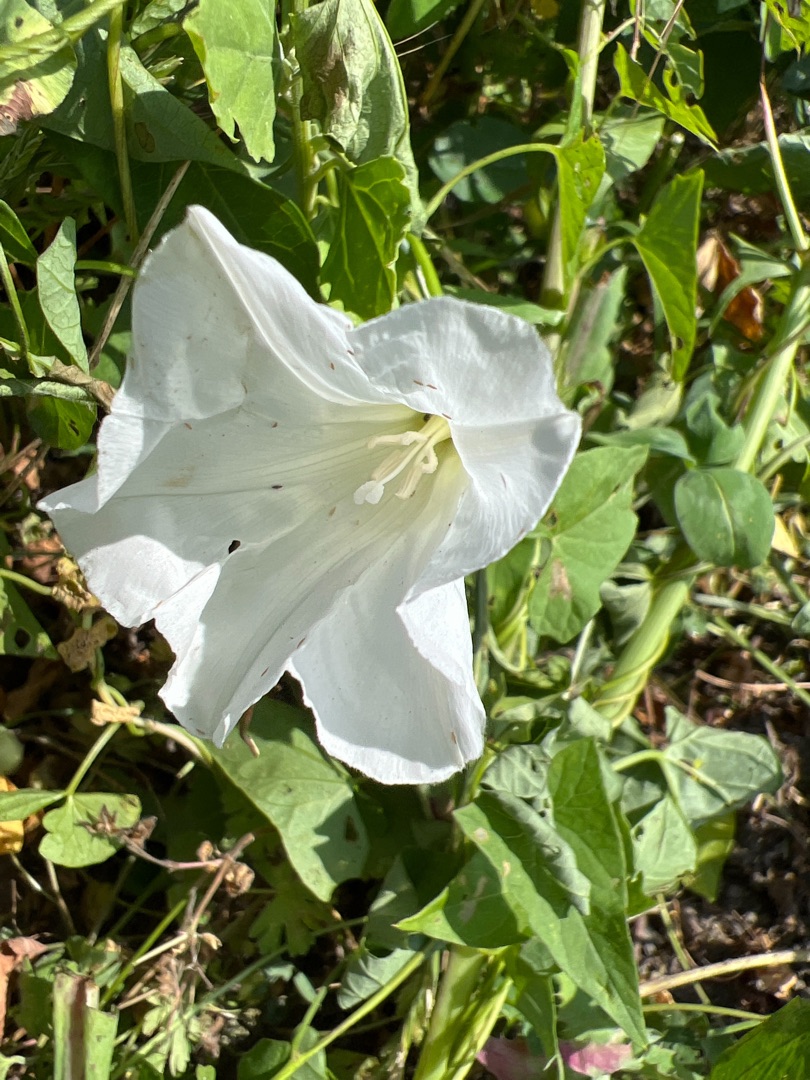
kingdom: Plantae
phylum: Tracheophyta
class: Magnoliopsida
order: Solanales
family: Convolvulaceae
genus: Calystegia
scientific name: Calystegia sepium
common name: Gærde-snerle
